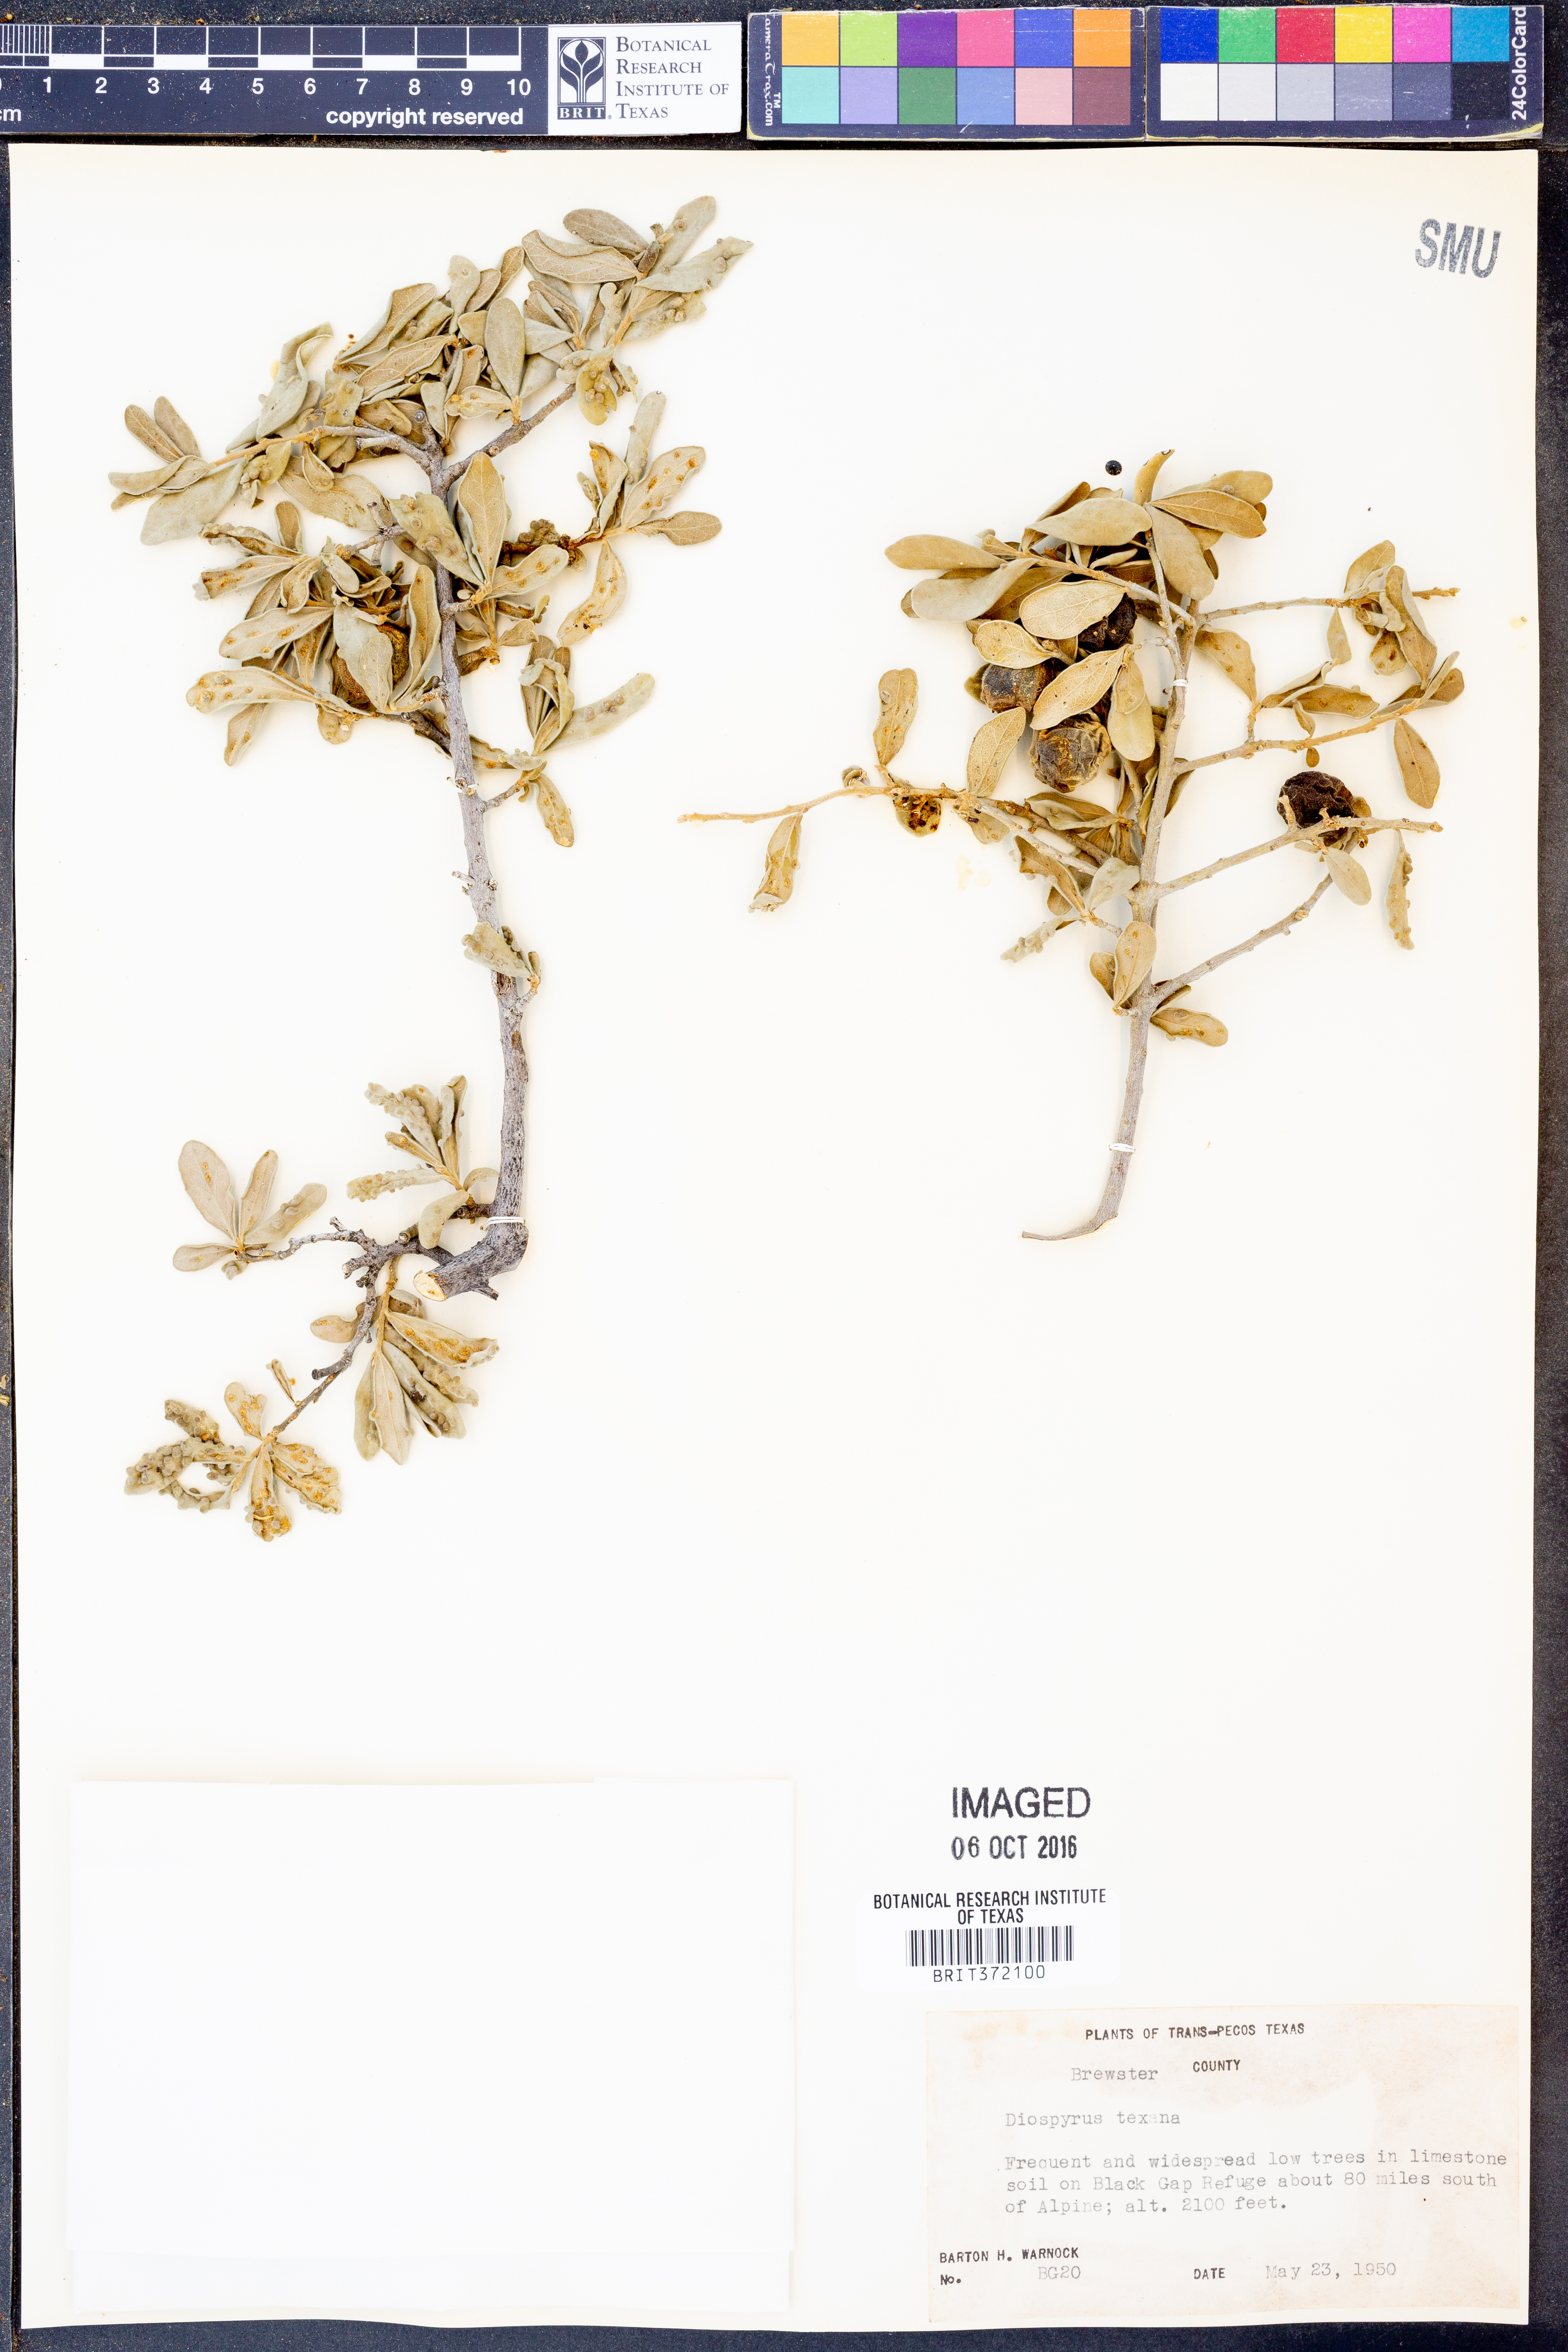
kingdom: Plantae
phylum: Tracheophyta
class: Magnoliopsida
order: Ericales
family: Ebenaceae
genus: Diospyros
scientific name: Diospyros texana
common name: Texas persimmon
